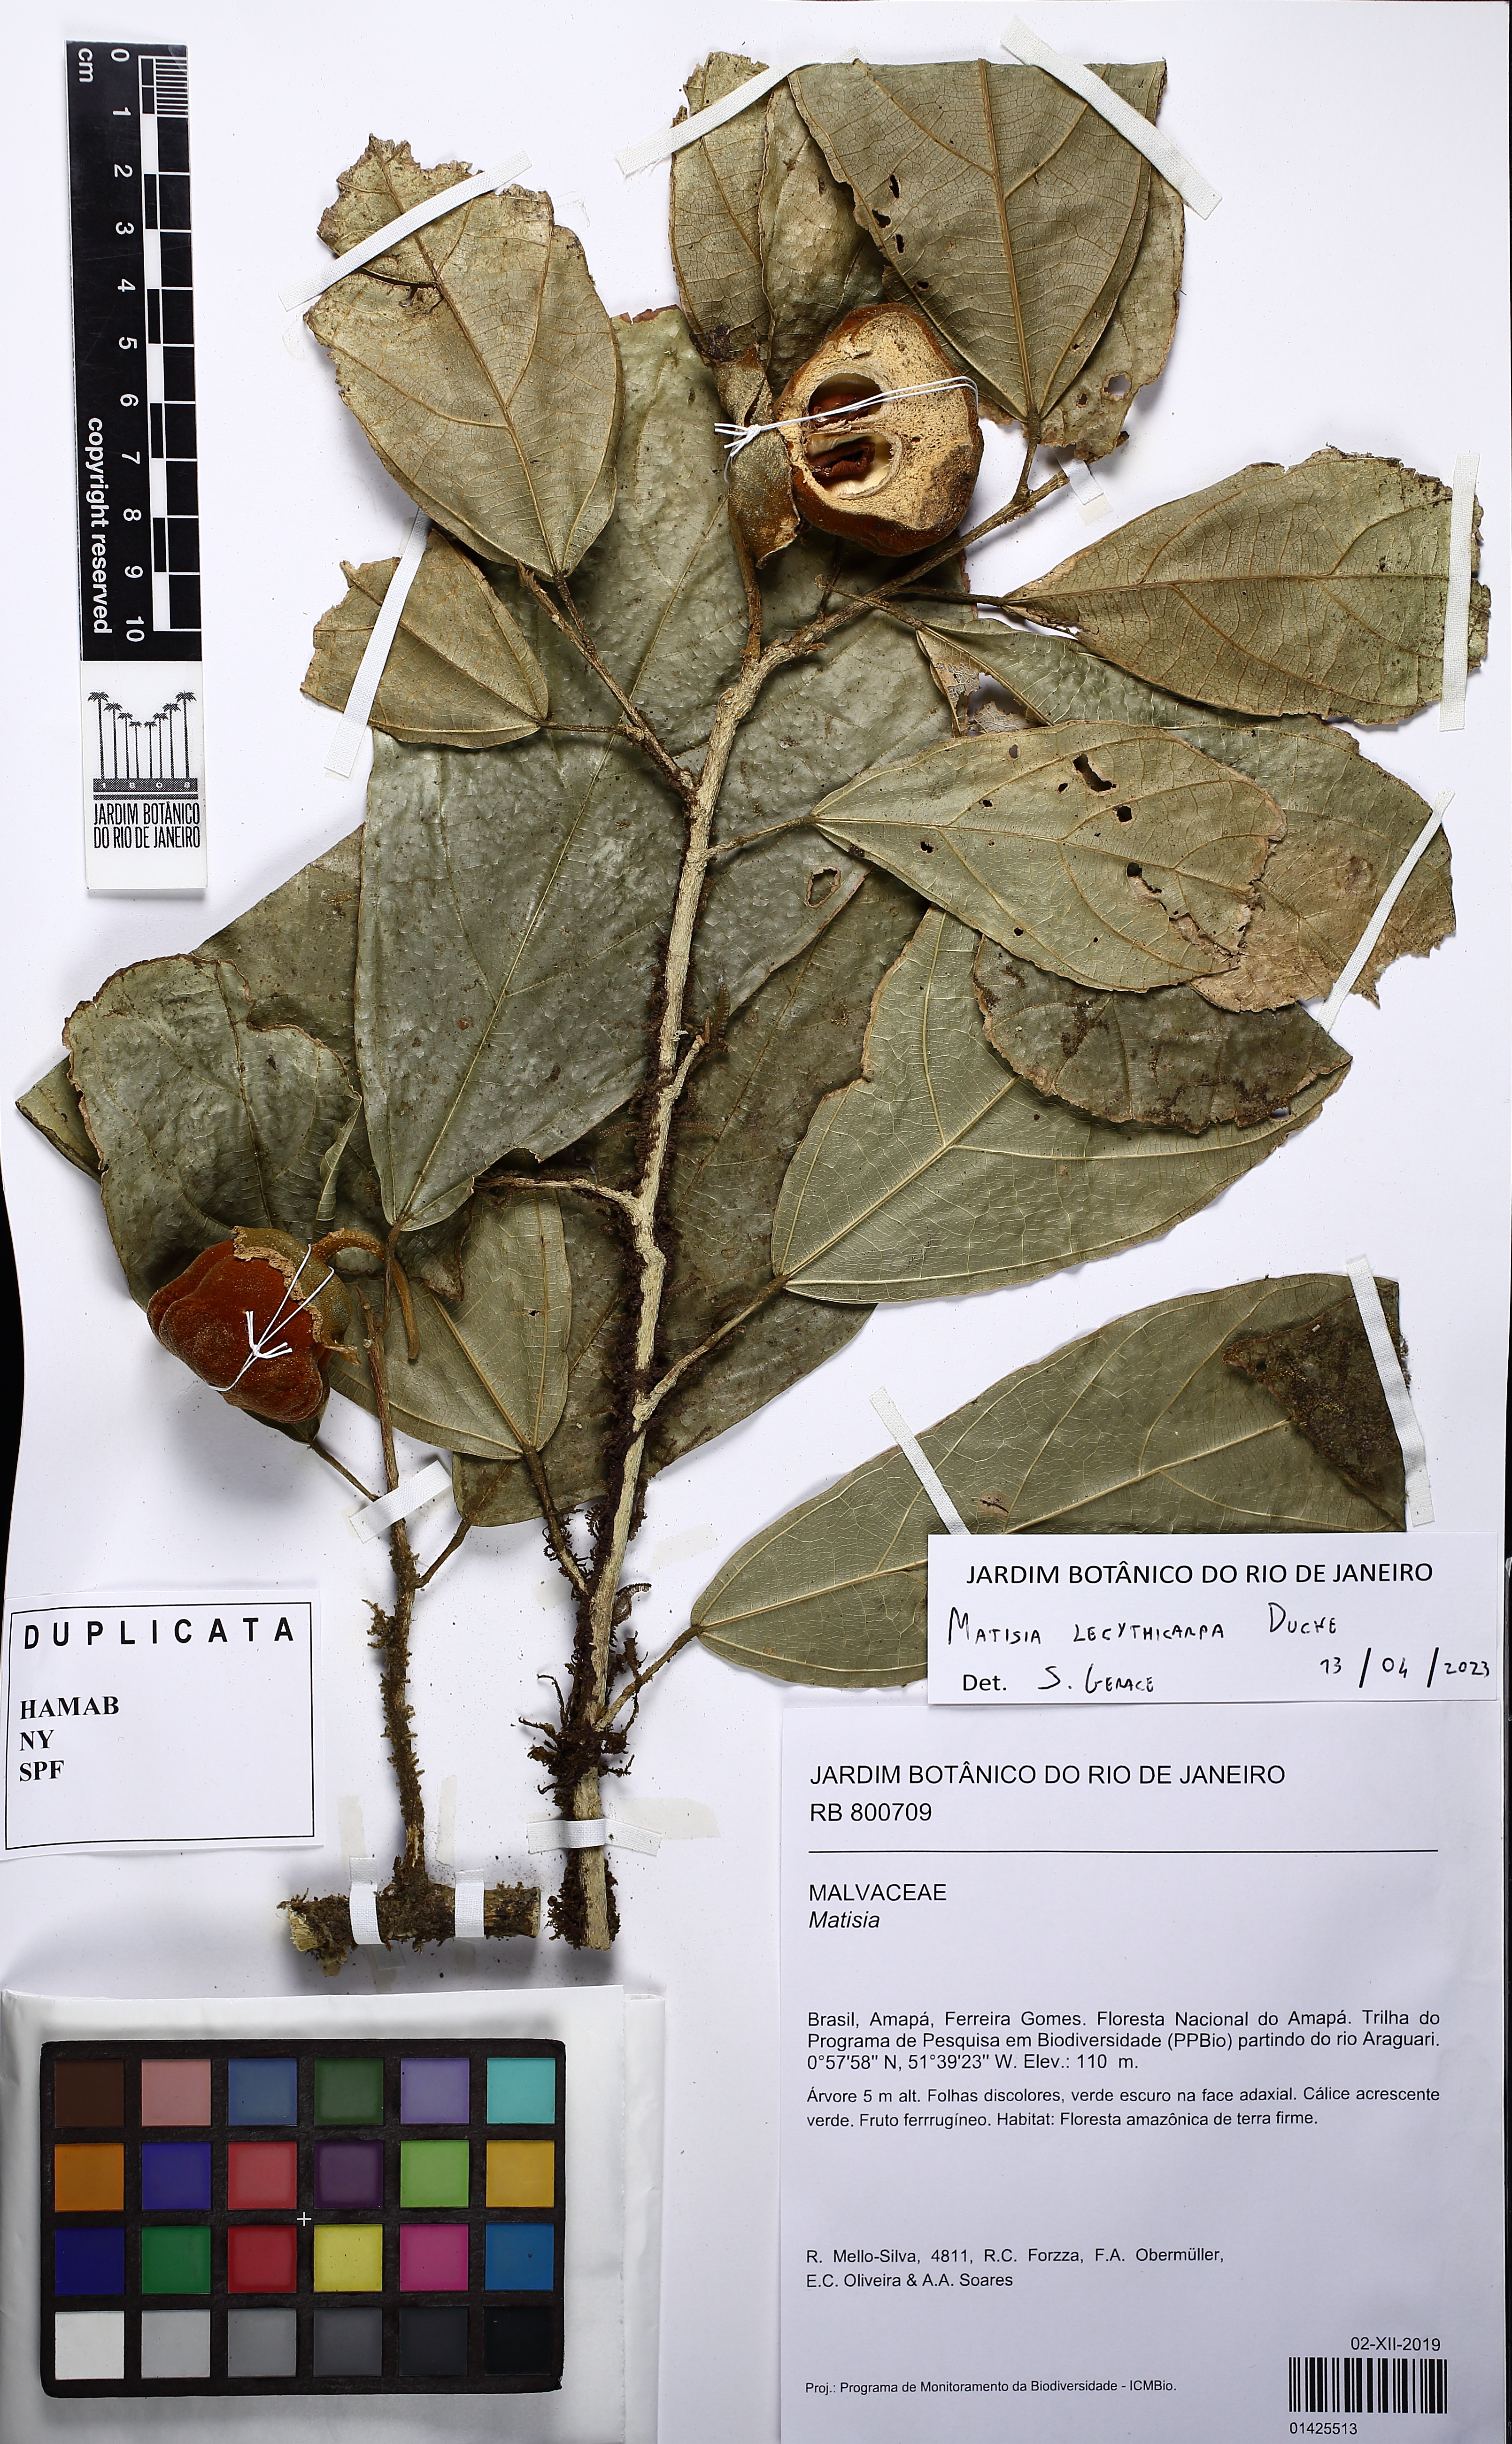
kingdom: Plantae
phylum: Tracheophyta
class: Magnoliopsida
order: Malvales
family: Malvaceae
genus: Matisia
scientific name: Matisia lecythicarpa
